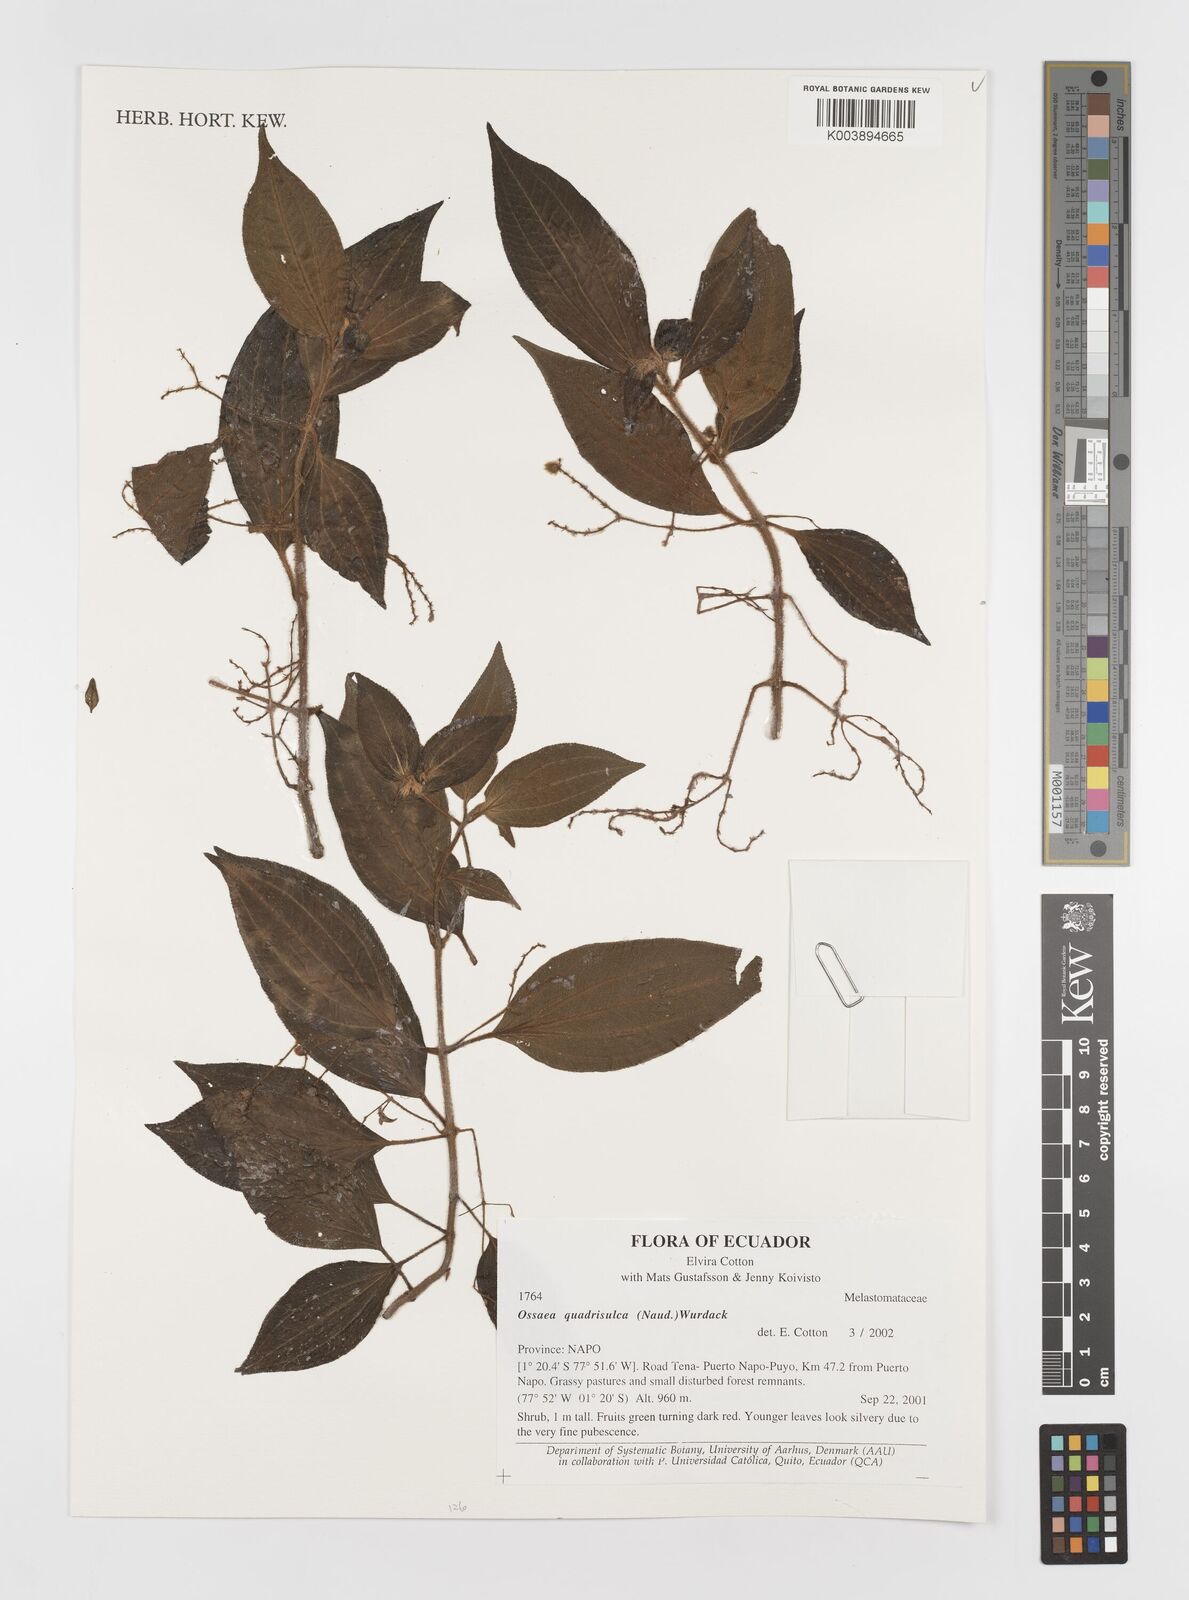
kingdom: Plantae
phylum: Tracheophyta
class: Magnoliopsida
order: Myrtales
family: Melastomataceae
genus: Miconia
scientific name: Miconia quadrisulca
